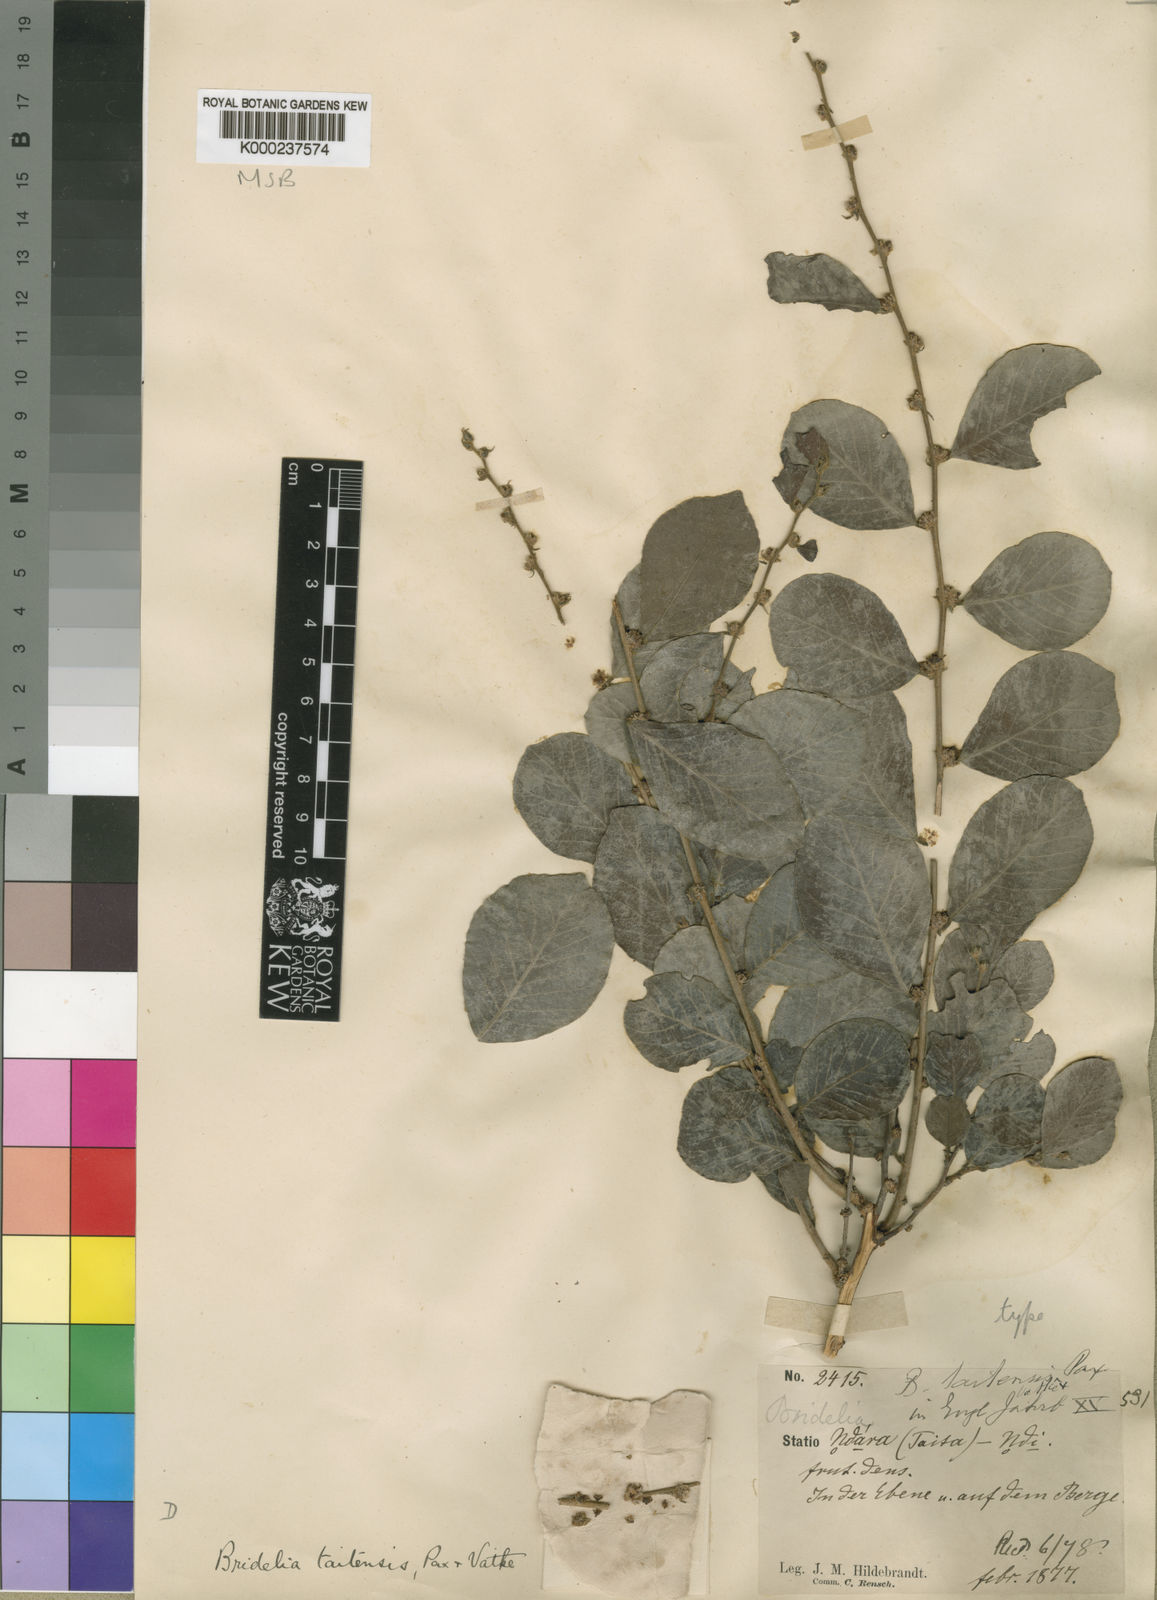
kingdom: Plantae
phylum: Tracheophyta
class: Magnoliopsida
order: Malpighiales
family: Phyllanthaceae
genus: Bridelia
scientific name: Bridelia taitensis
